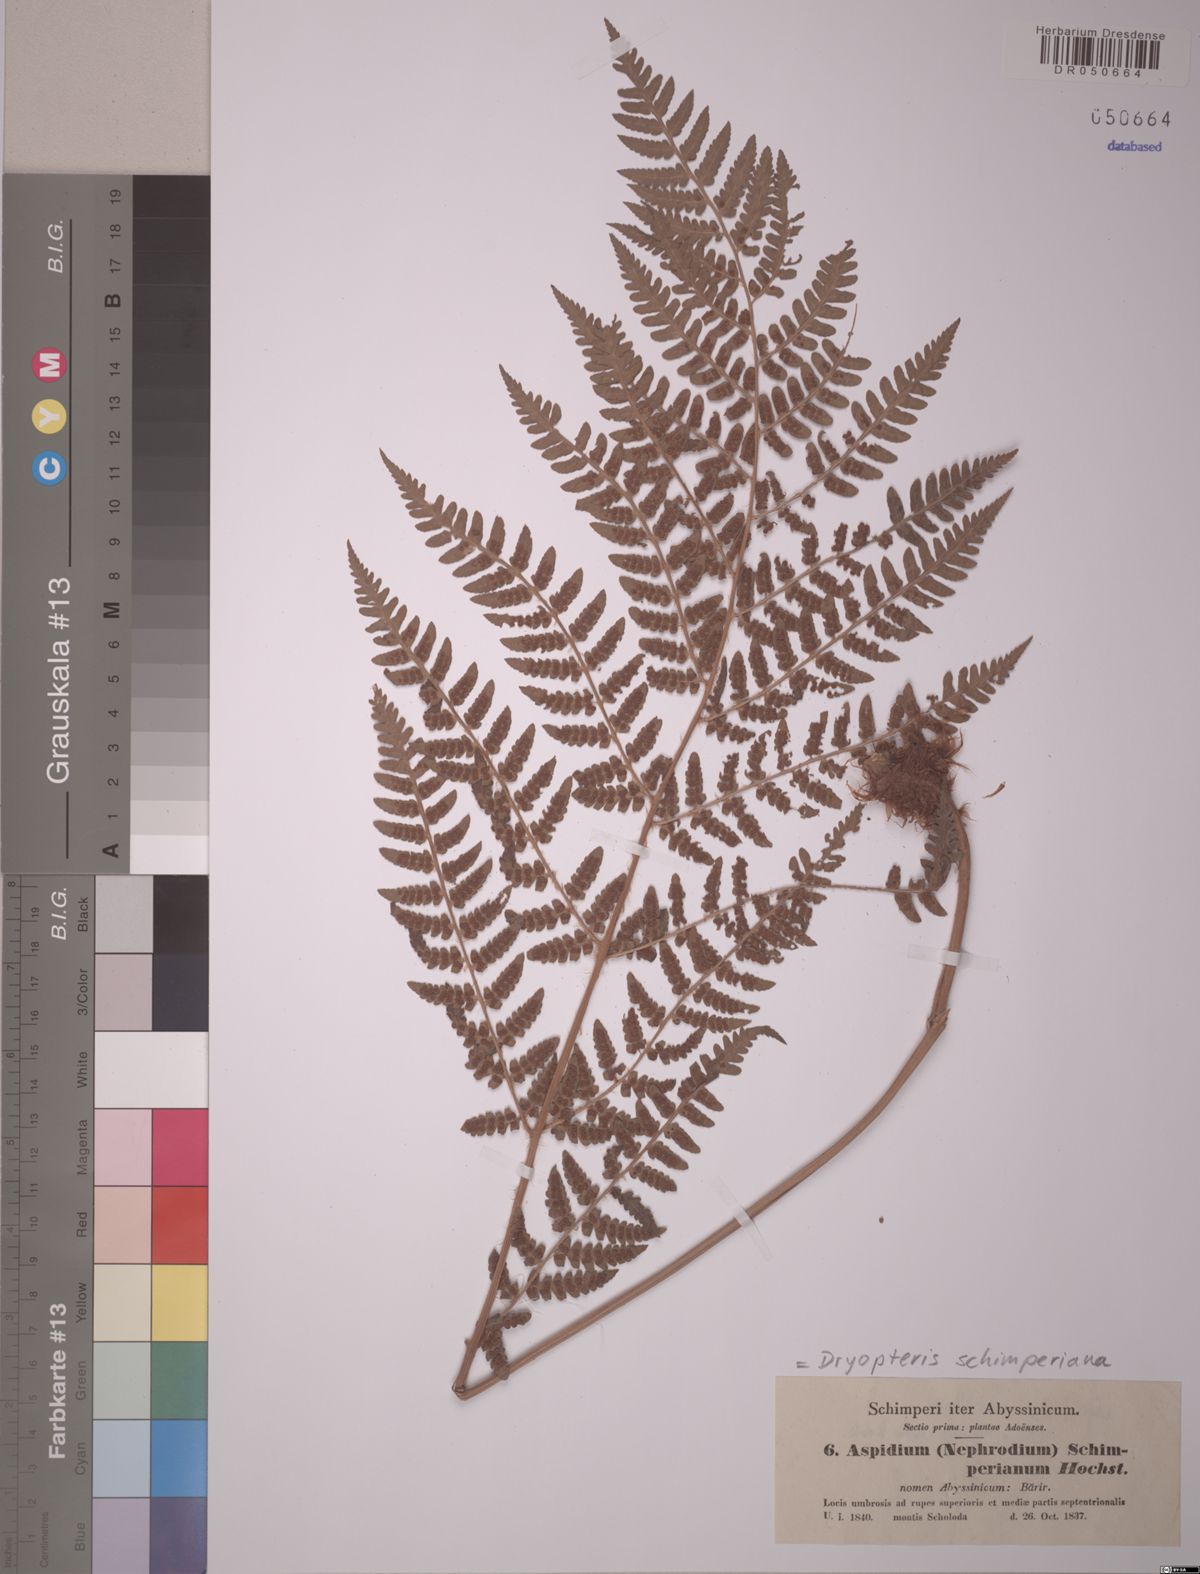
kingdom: Plantae
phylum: Tracheophyta
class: Polypodiopsida
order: Polypodiales
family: Dryopteridaceae
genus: Dryopteris
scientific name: Dryopteris schimperiana
